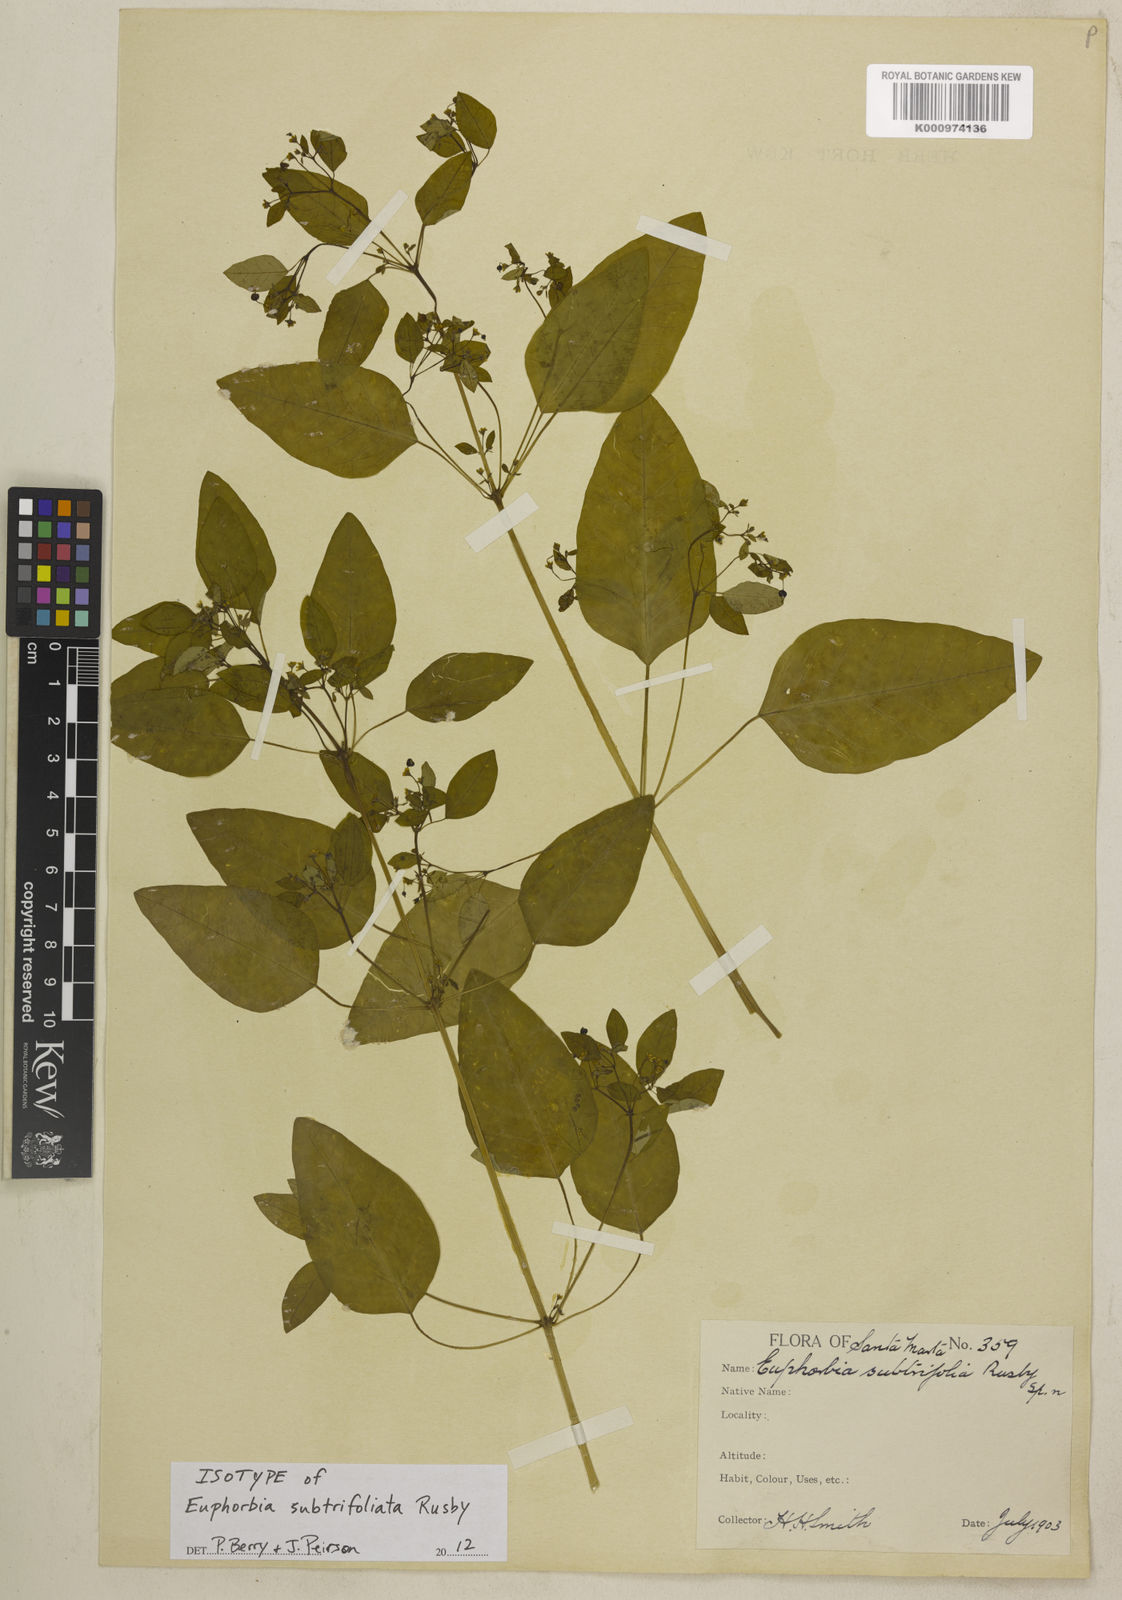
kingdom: Plantae
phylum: Tracheophyta
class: Magnoliopsida
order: Malpighiales
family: Euphorbiaceae
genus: Euphorbia
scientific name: Euphorbia subtrifoliata
